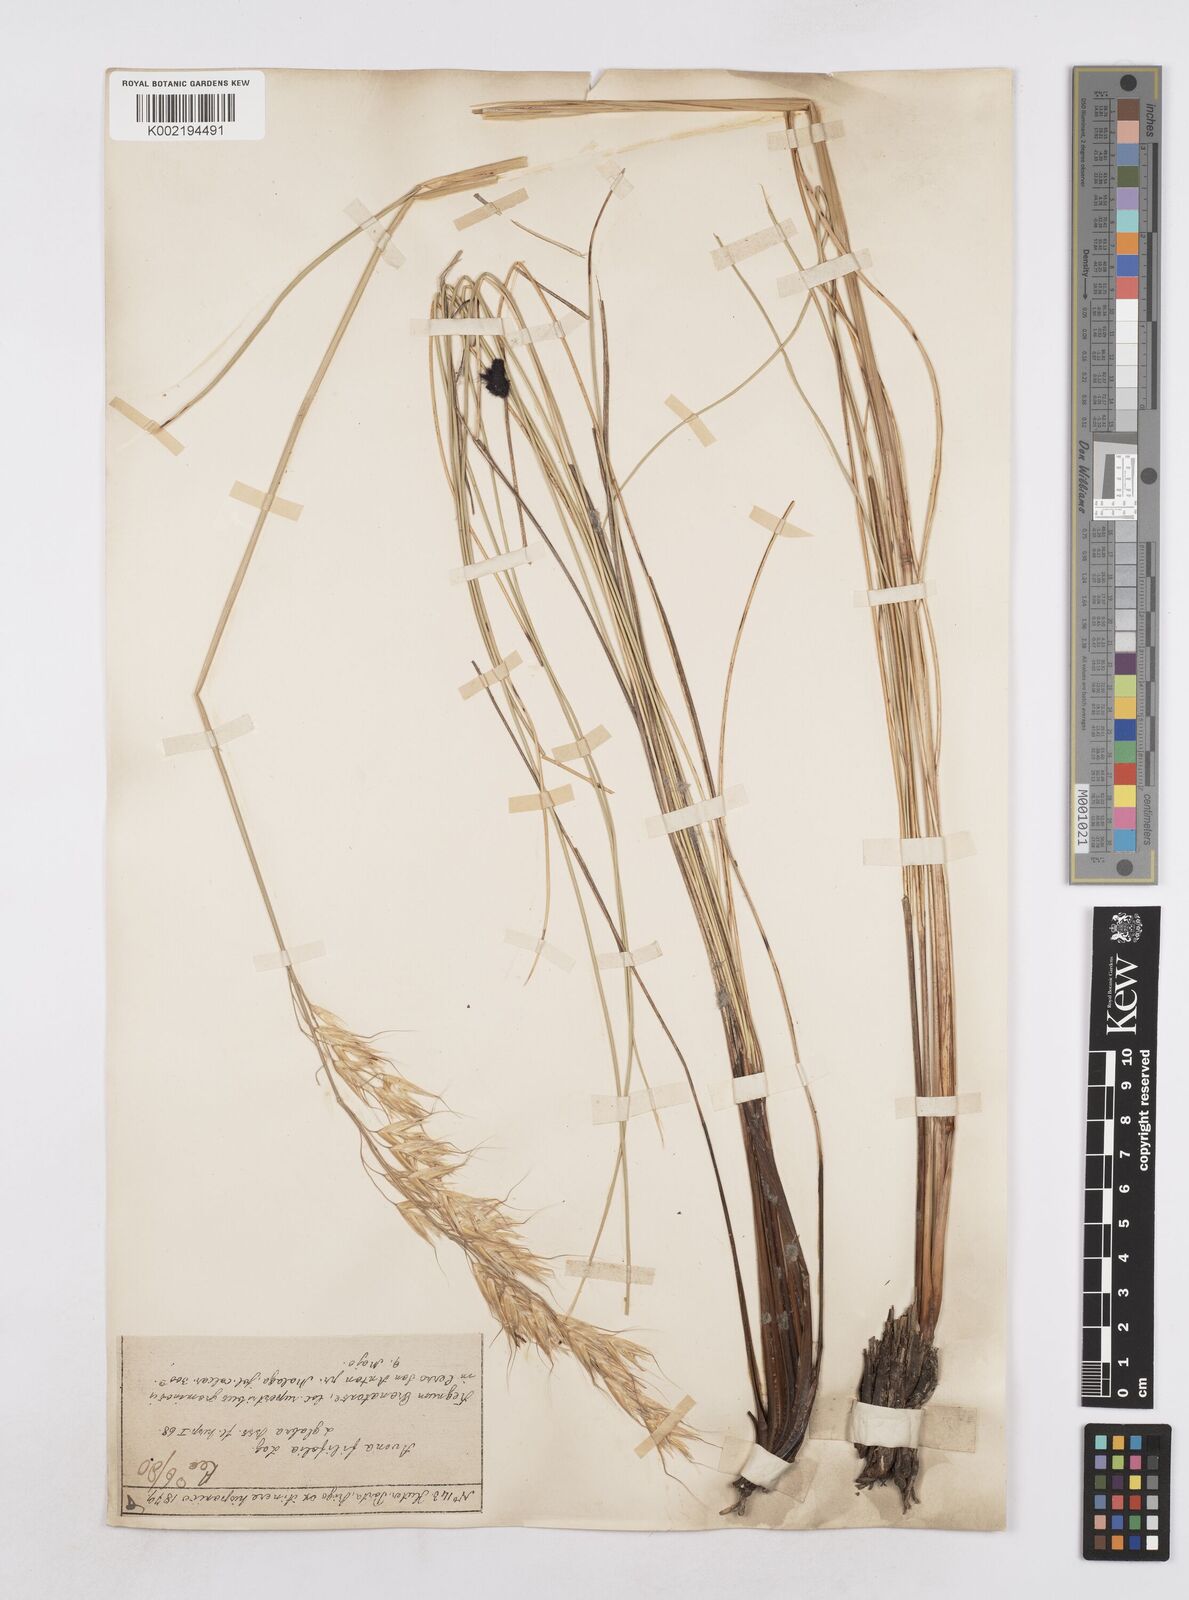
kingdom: Plantae
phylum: Tracheophyta
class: Liliopsida
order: Poales
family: Poaceae
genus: Helictotrichon
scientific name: Helictotrichon filifolium
